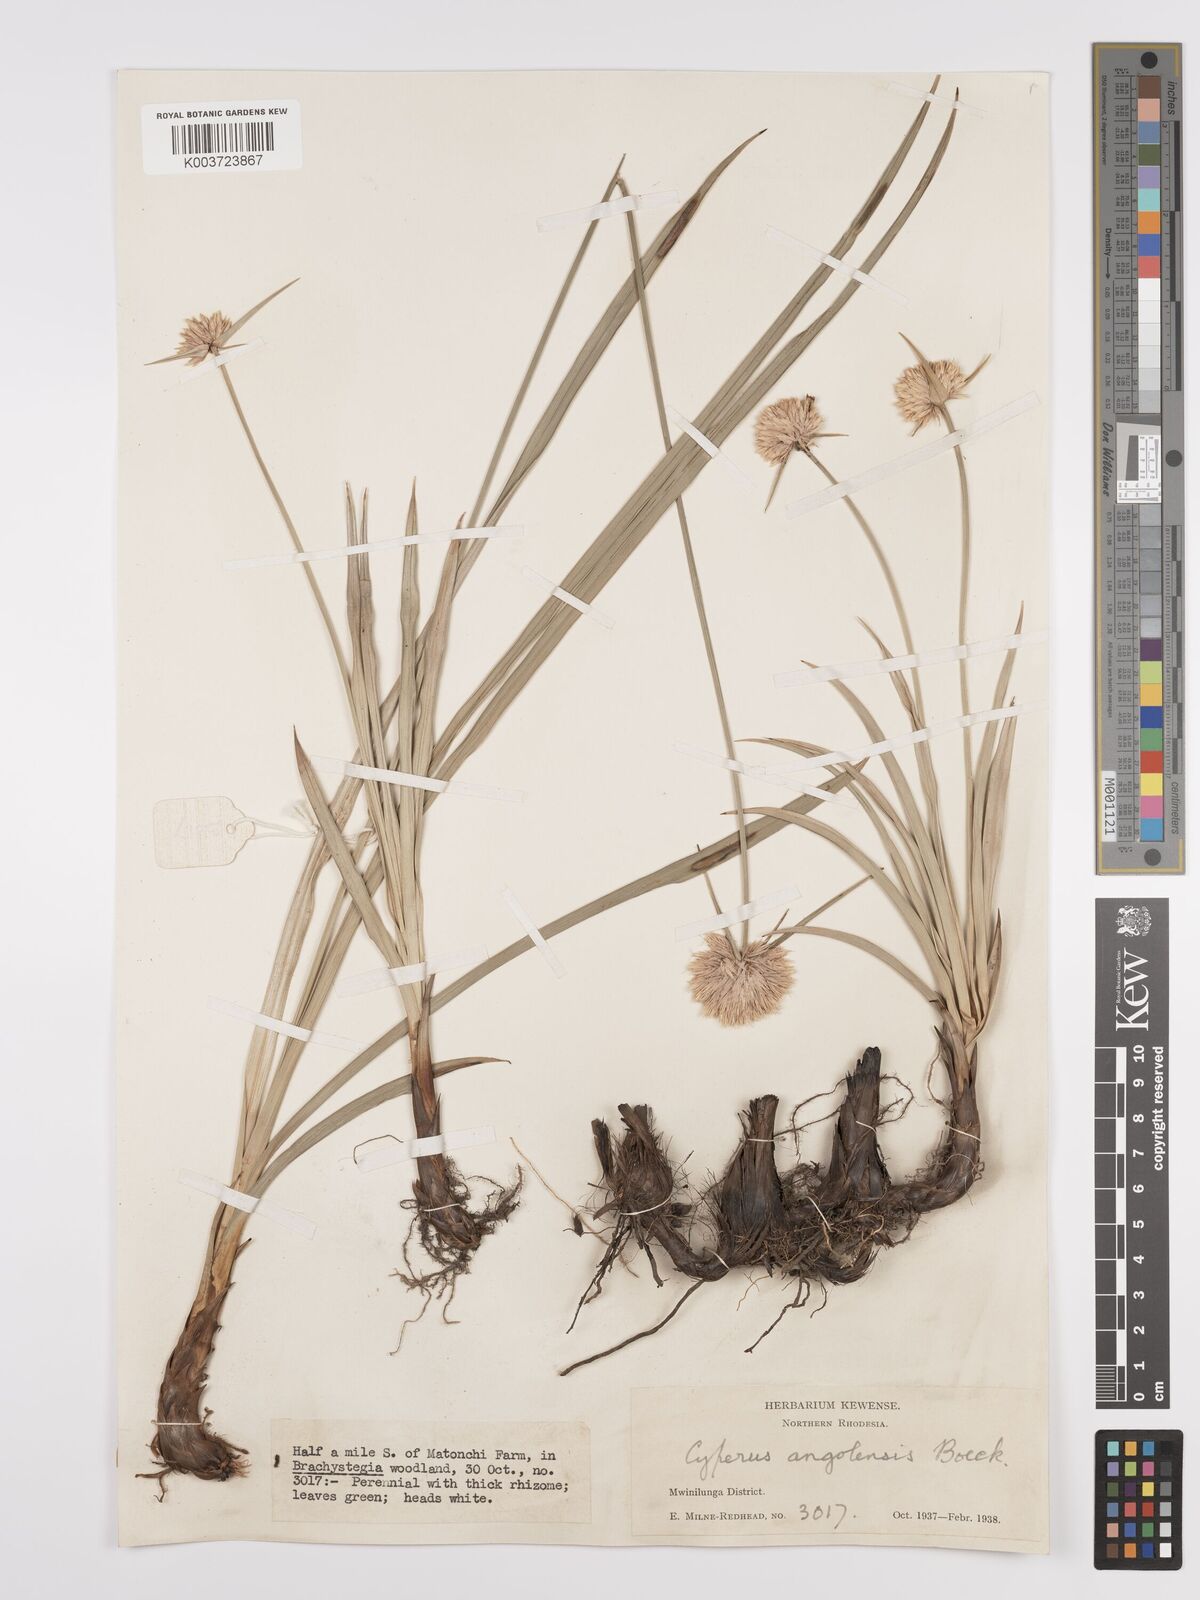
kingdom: Plantae
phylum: Tracheophyta
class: Liliopsida
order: Poales
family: Cyperaceae
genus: Cyperus
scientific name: Cyperus angolensis
